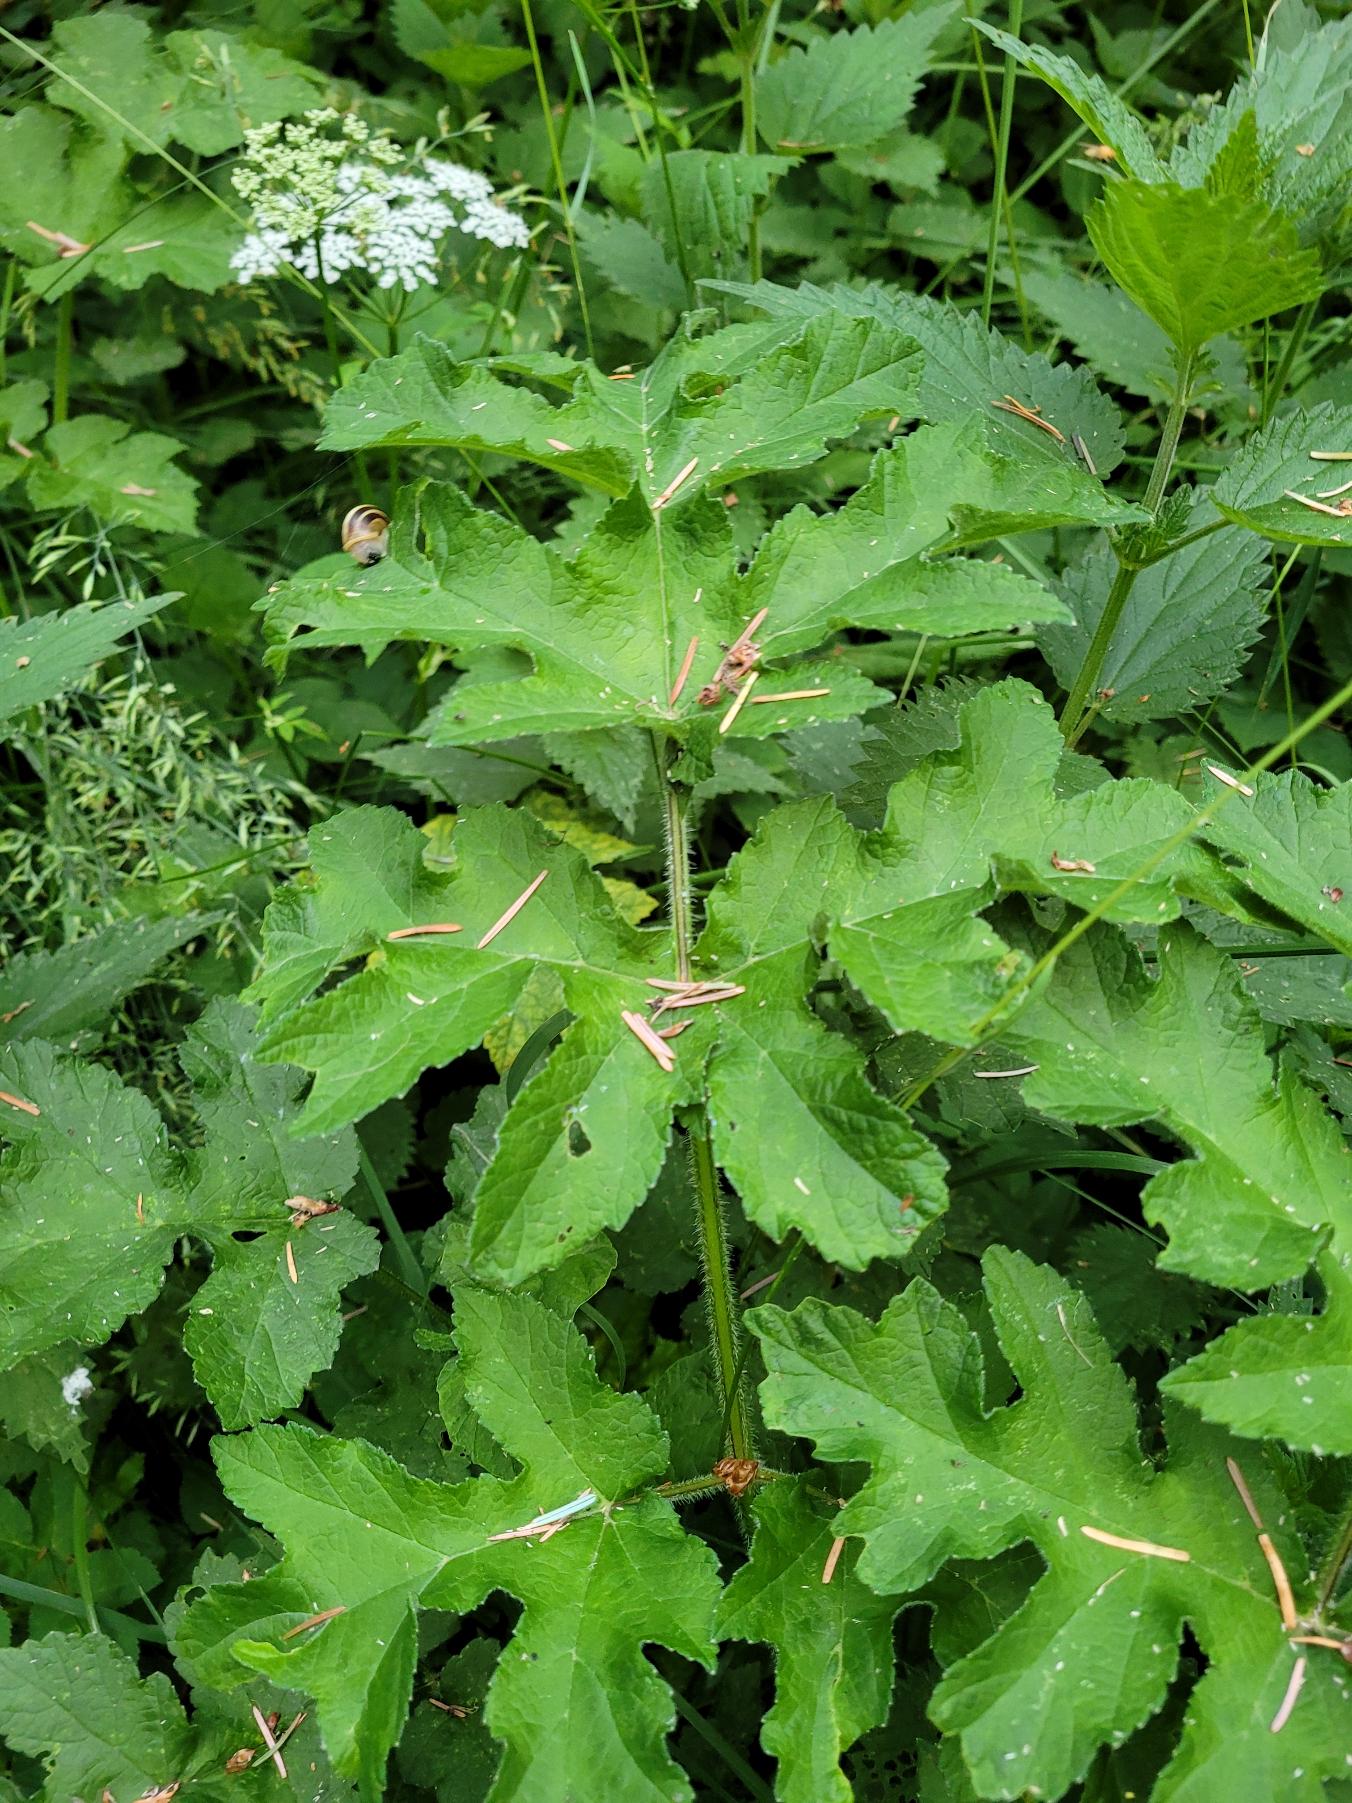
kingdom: Plantae
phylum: Tracheophyta
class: Magnoliopsida
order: Apiales
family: Apiaceae
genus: Heracleum
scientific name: Heracleum sphondylium
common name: Almindelig bjørneklo
